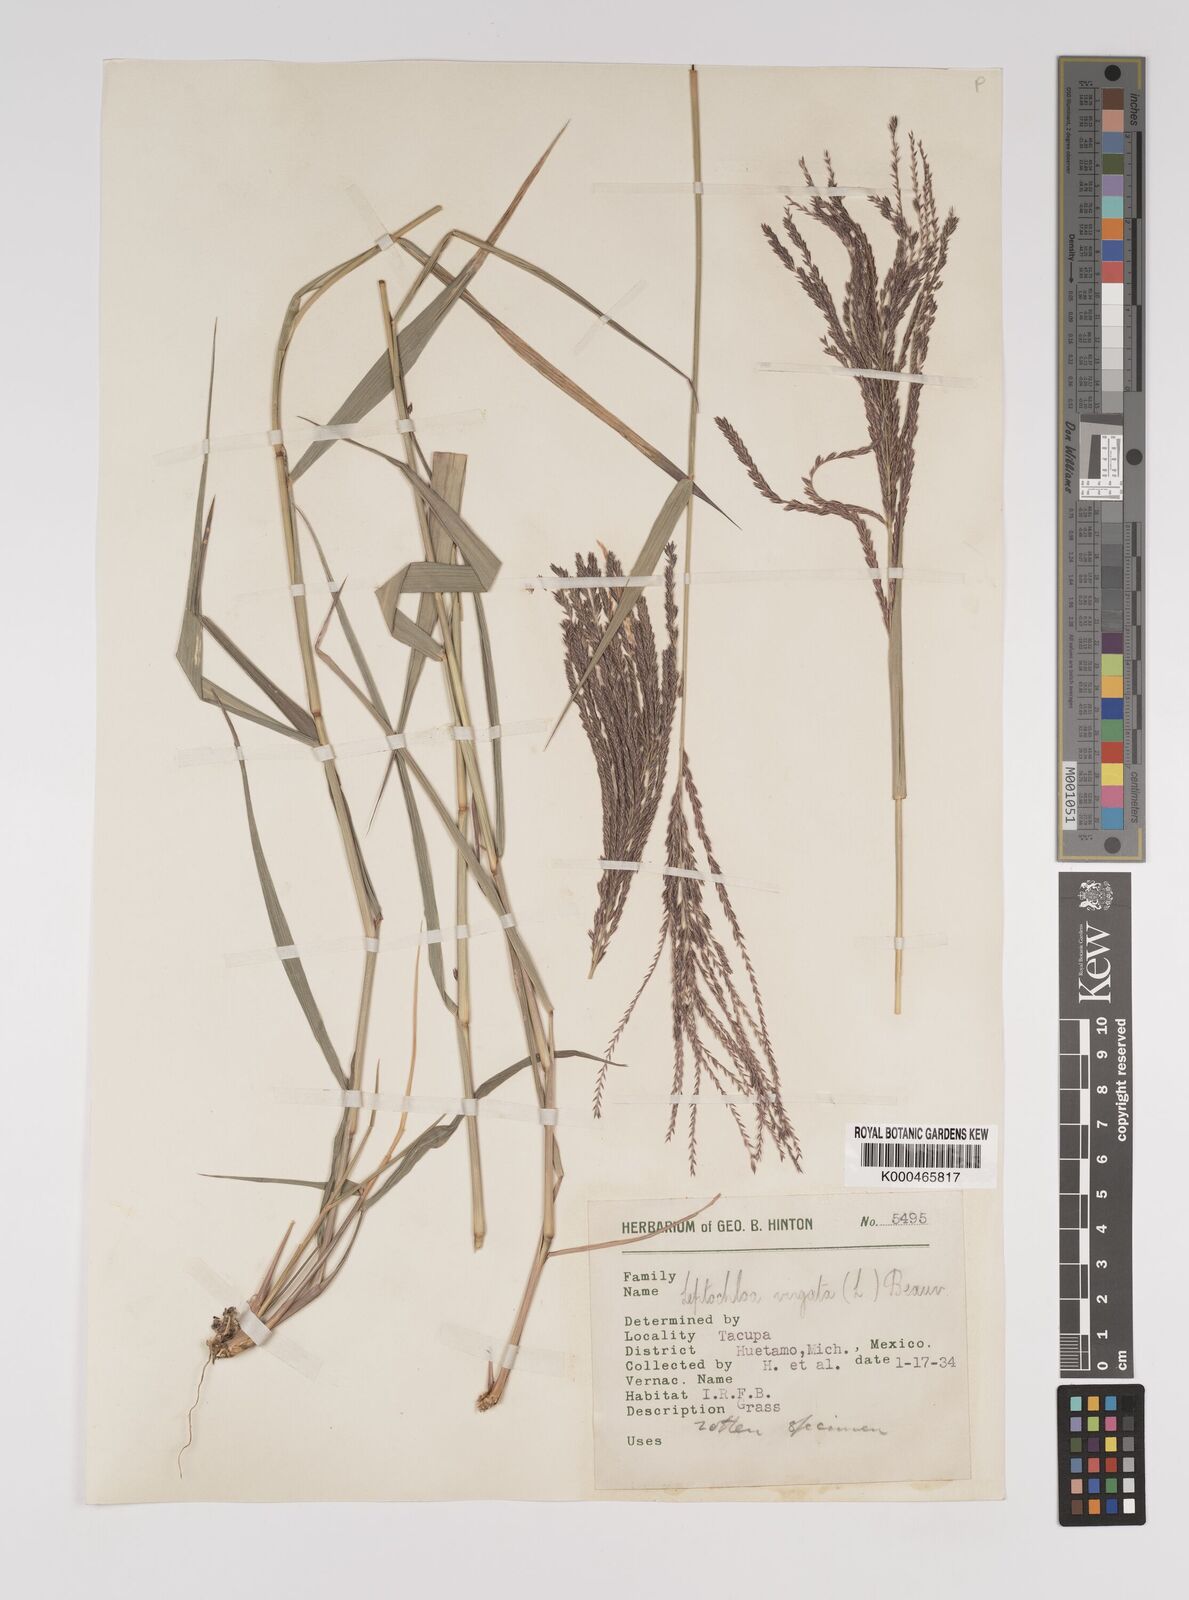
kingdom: Plantae
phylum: Tracheophyta
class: Liliopsida
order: Poales
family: Poaceae
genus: Leptochloa
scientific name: Leptochloa virgata
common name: Tropical sprangletop
